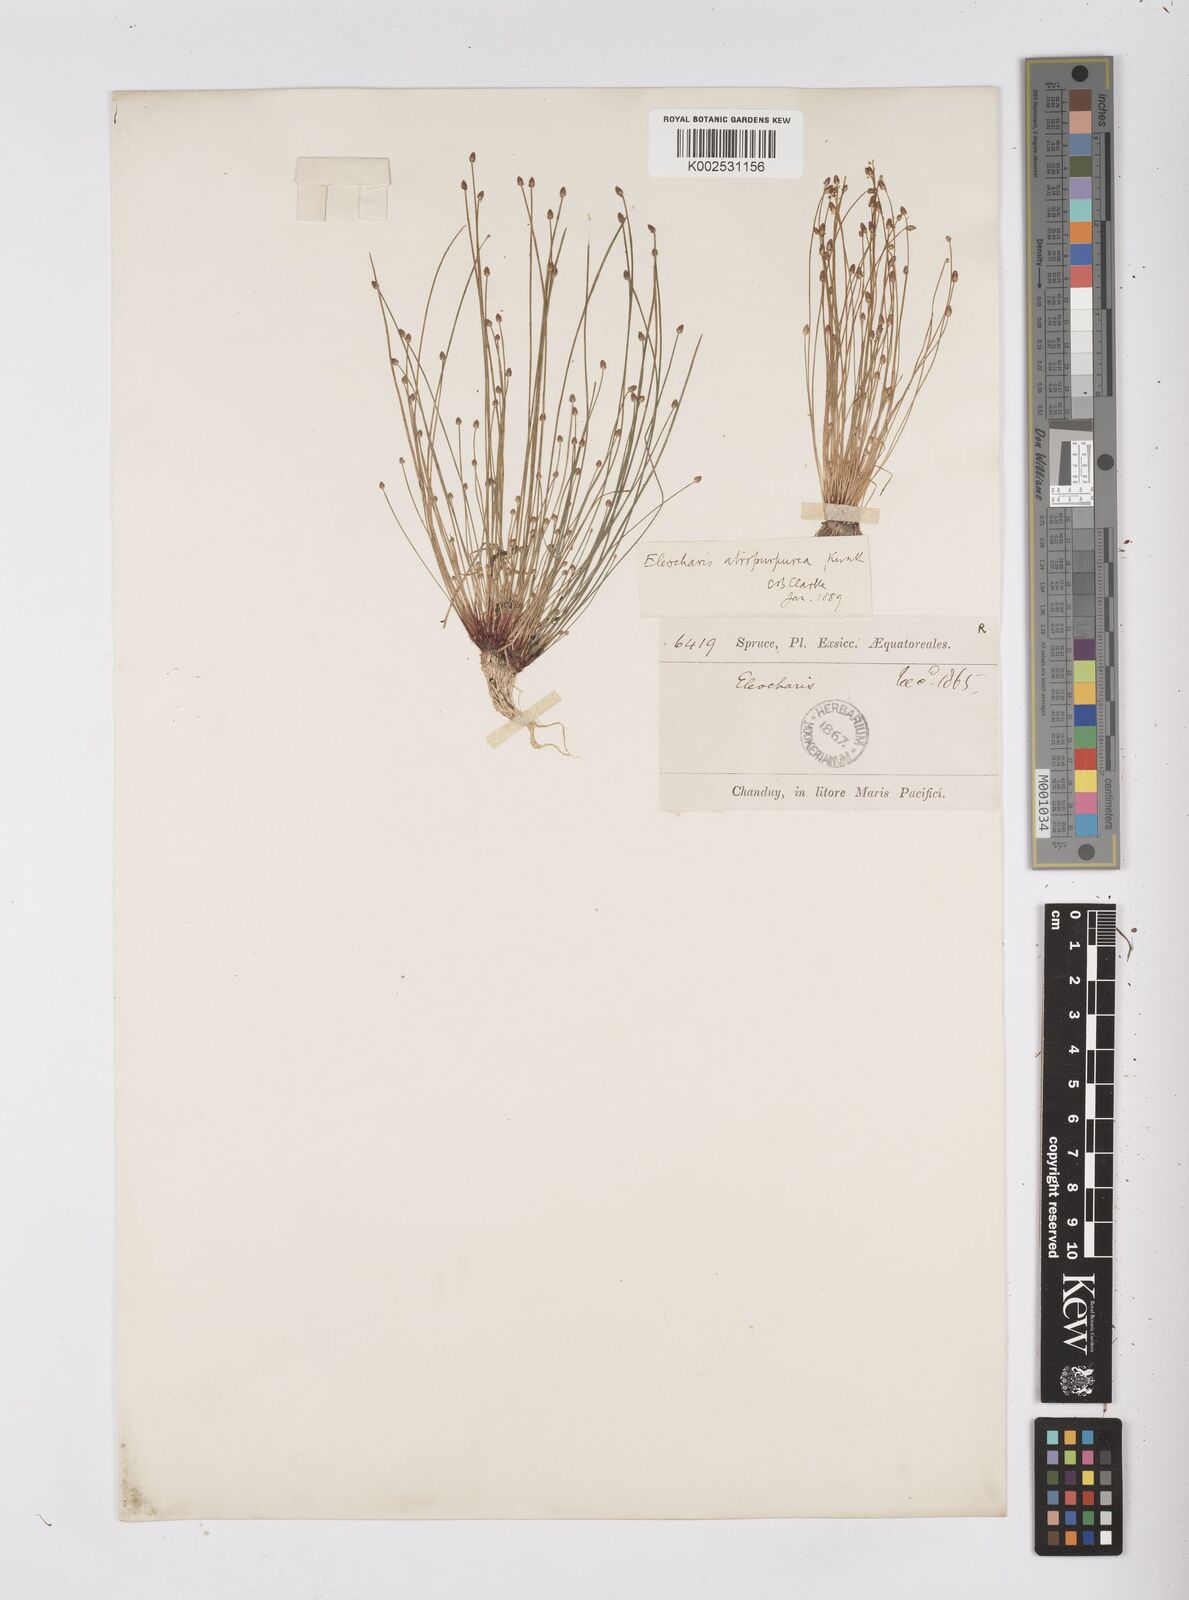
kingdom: Plantae
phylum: Tracheophyta
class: Liliopsida
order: Poales
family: Cyperaceae
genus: Eleocharis
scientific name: Eleocharis atropurpurea
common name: Purple spikerush
